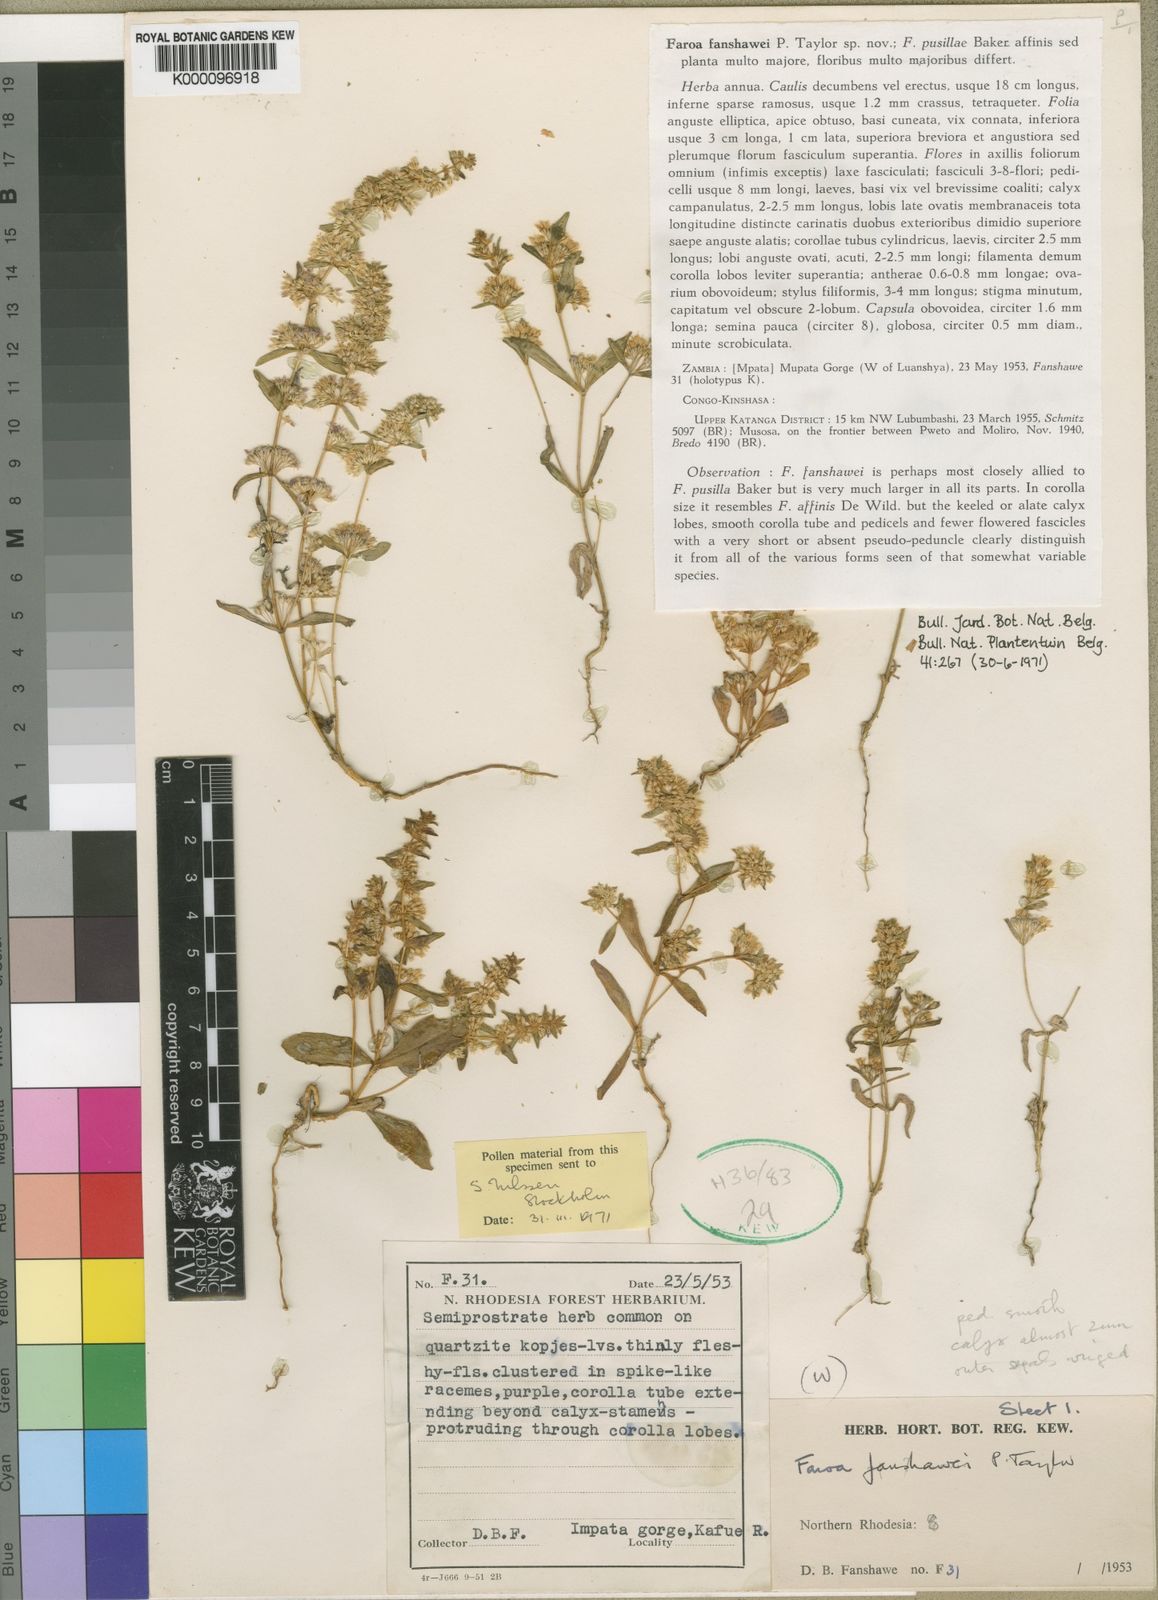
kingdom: Plantae
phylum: Tracheophyta
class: Magnoliopsida
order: Gentianales
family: Gentianaceae
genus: Faroa
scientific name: Faroa fanshawei
